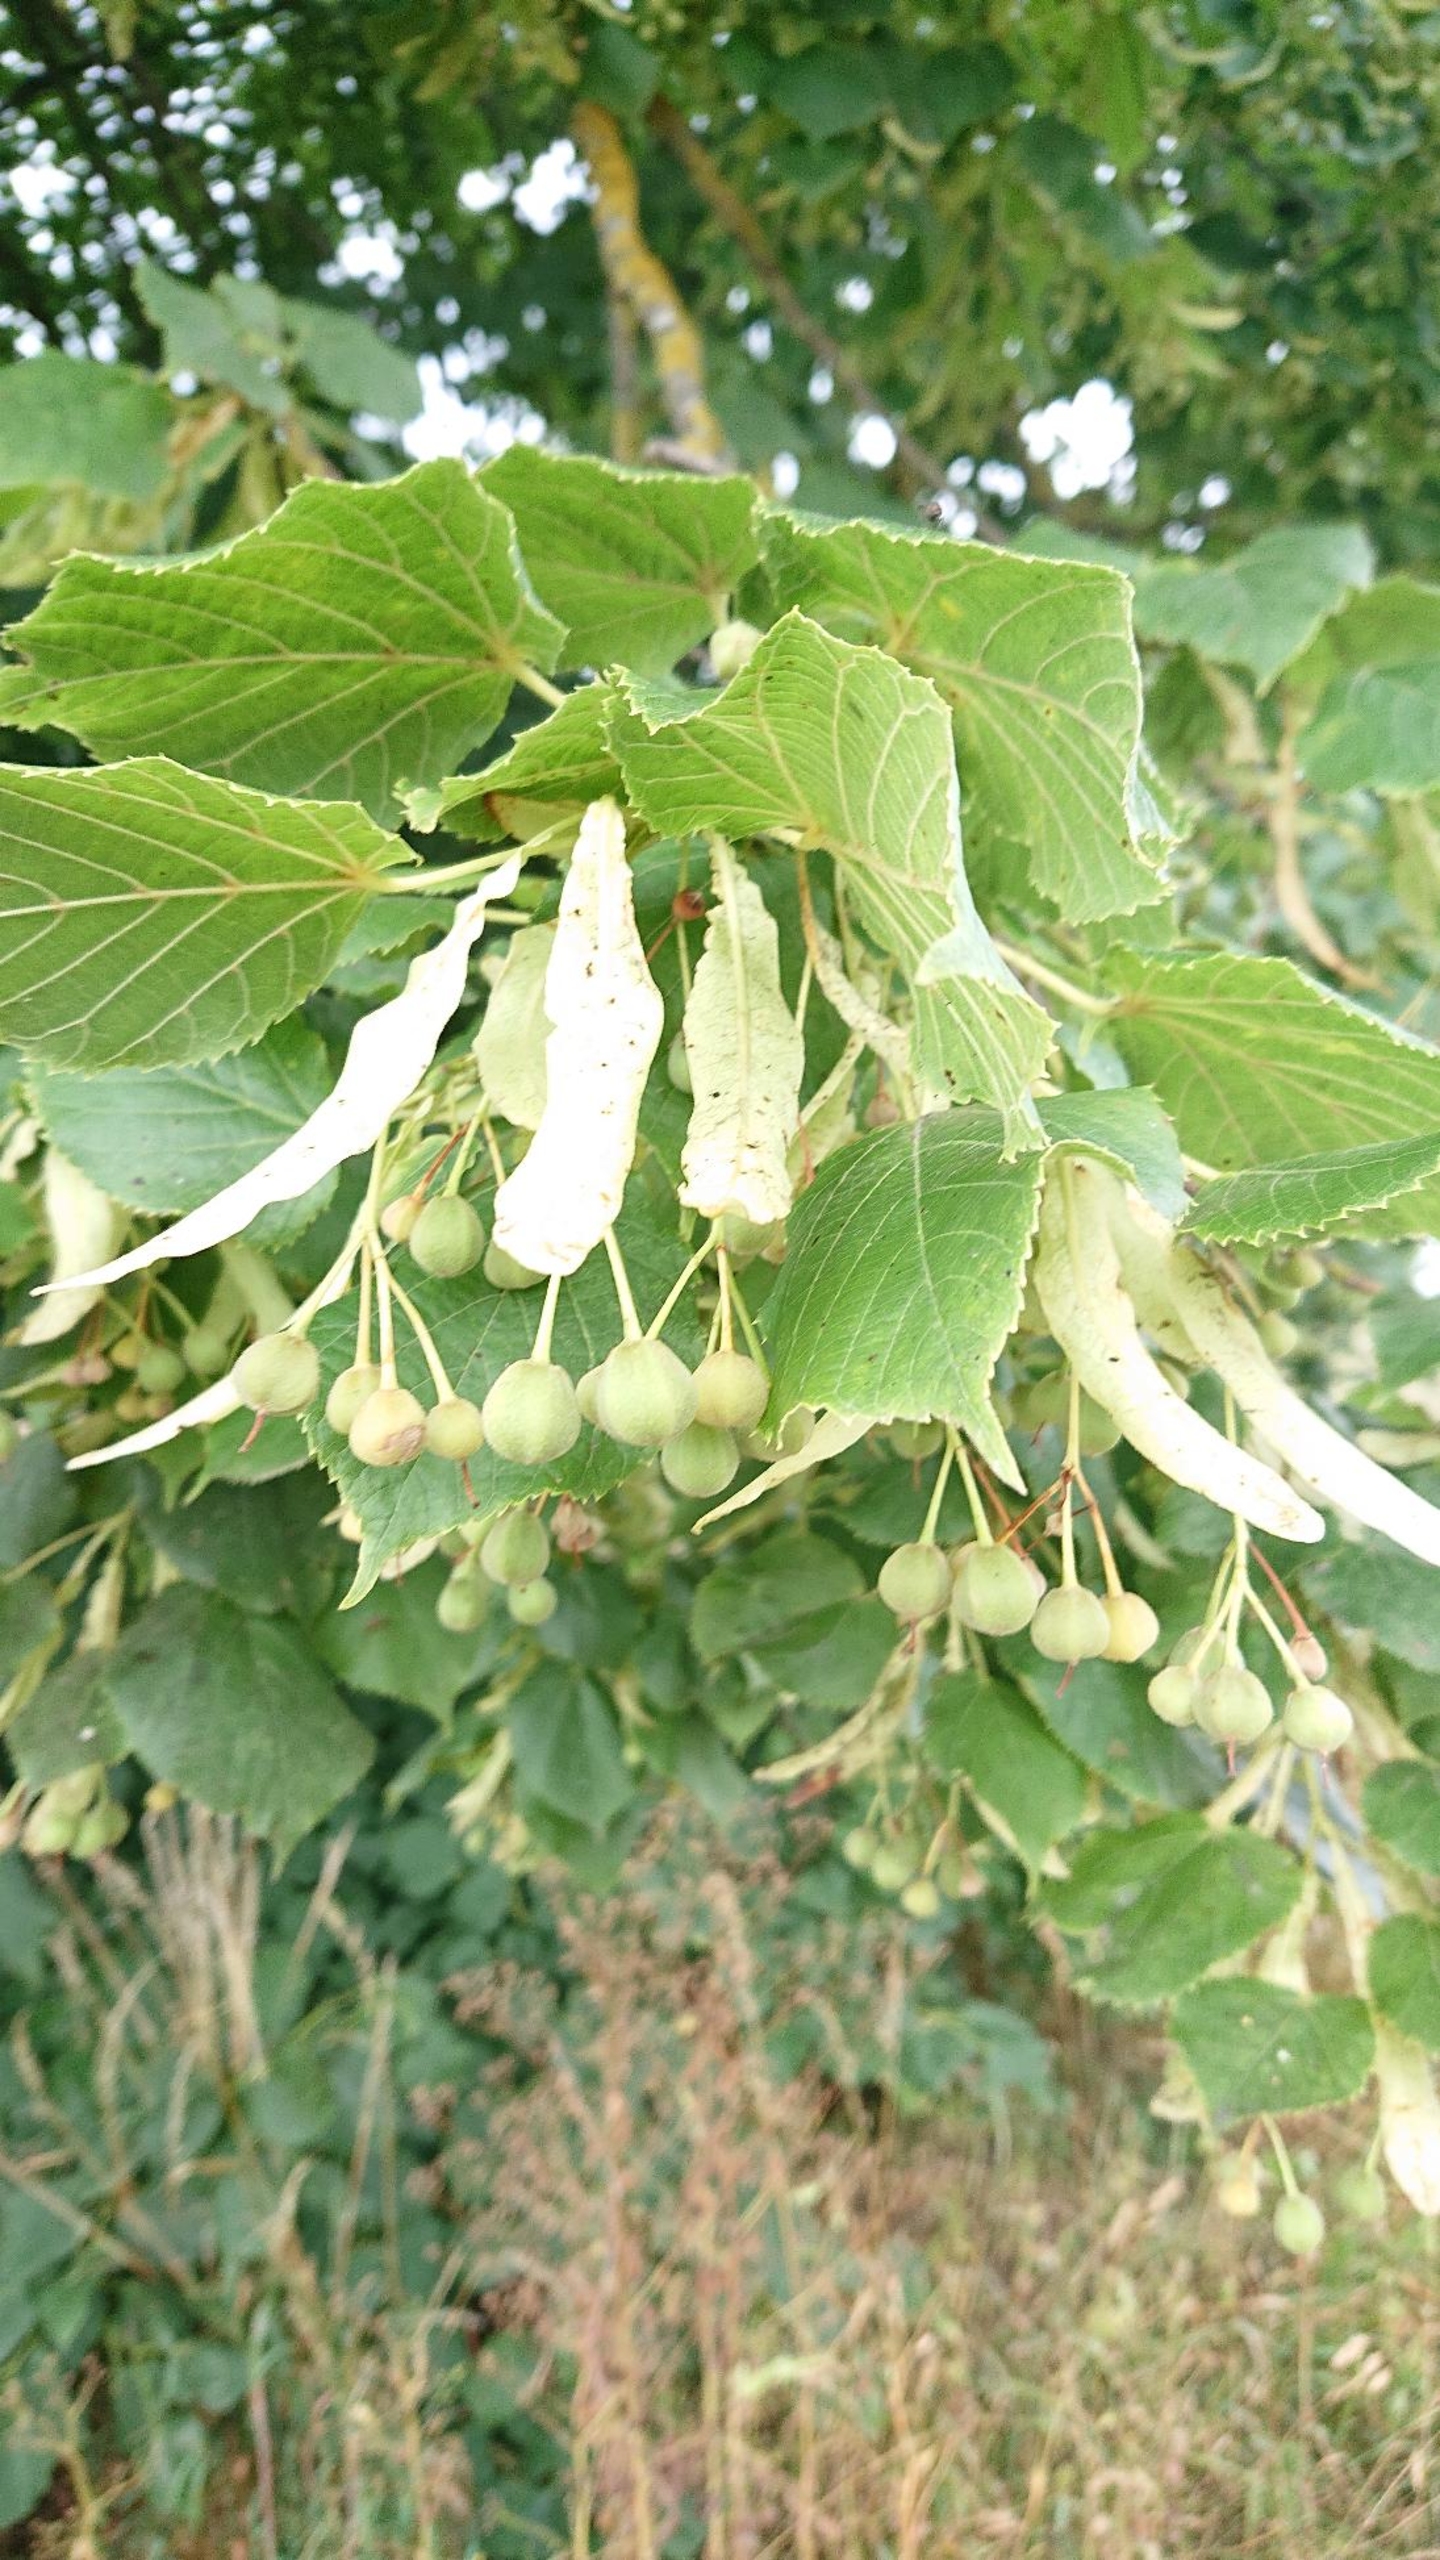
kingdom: Plantae
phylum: Tracheophyta
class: Magnoliopsida
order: Malvales
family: Malvaceae
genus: Tilia
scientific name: Tilia platyphyllos
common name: Storbladet lind
